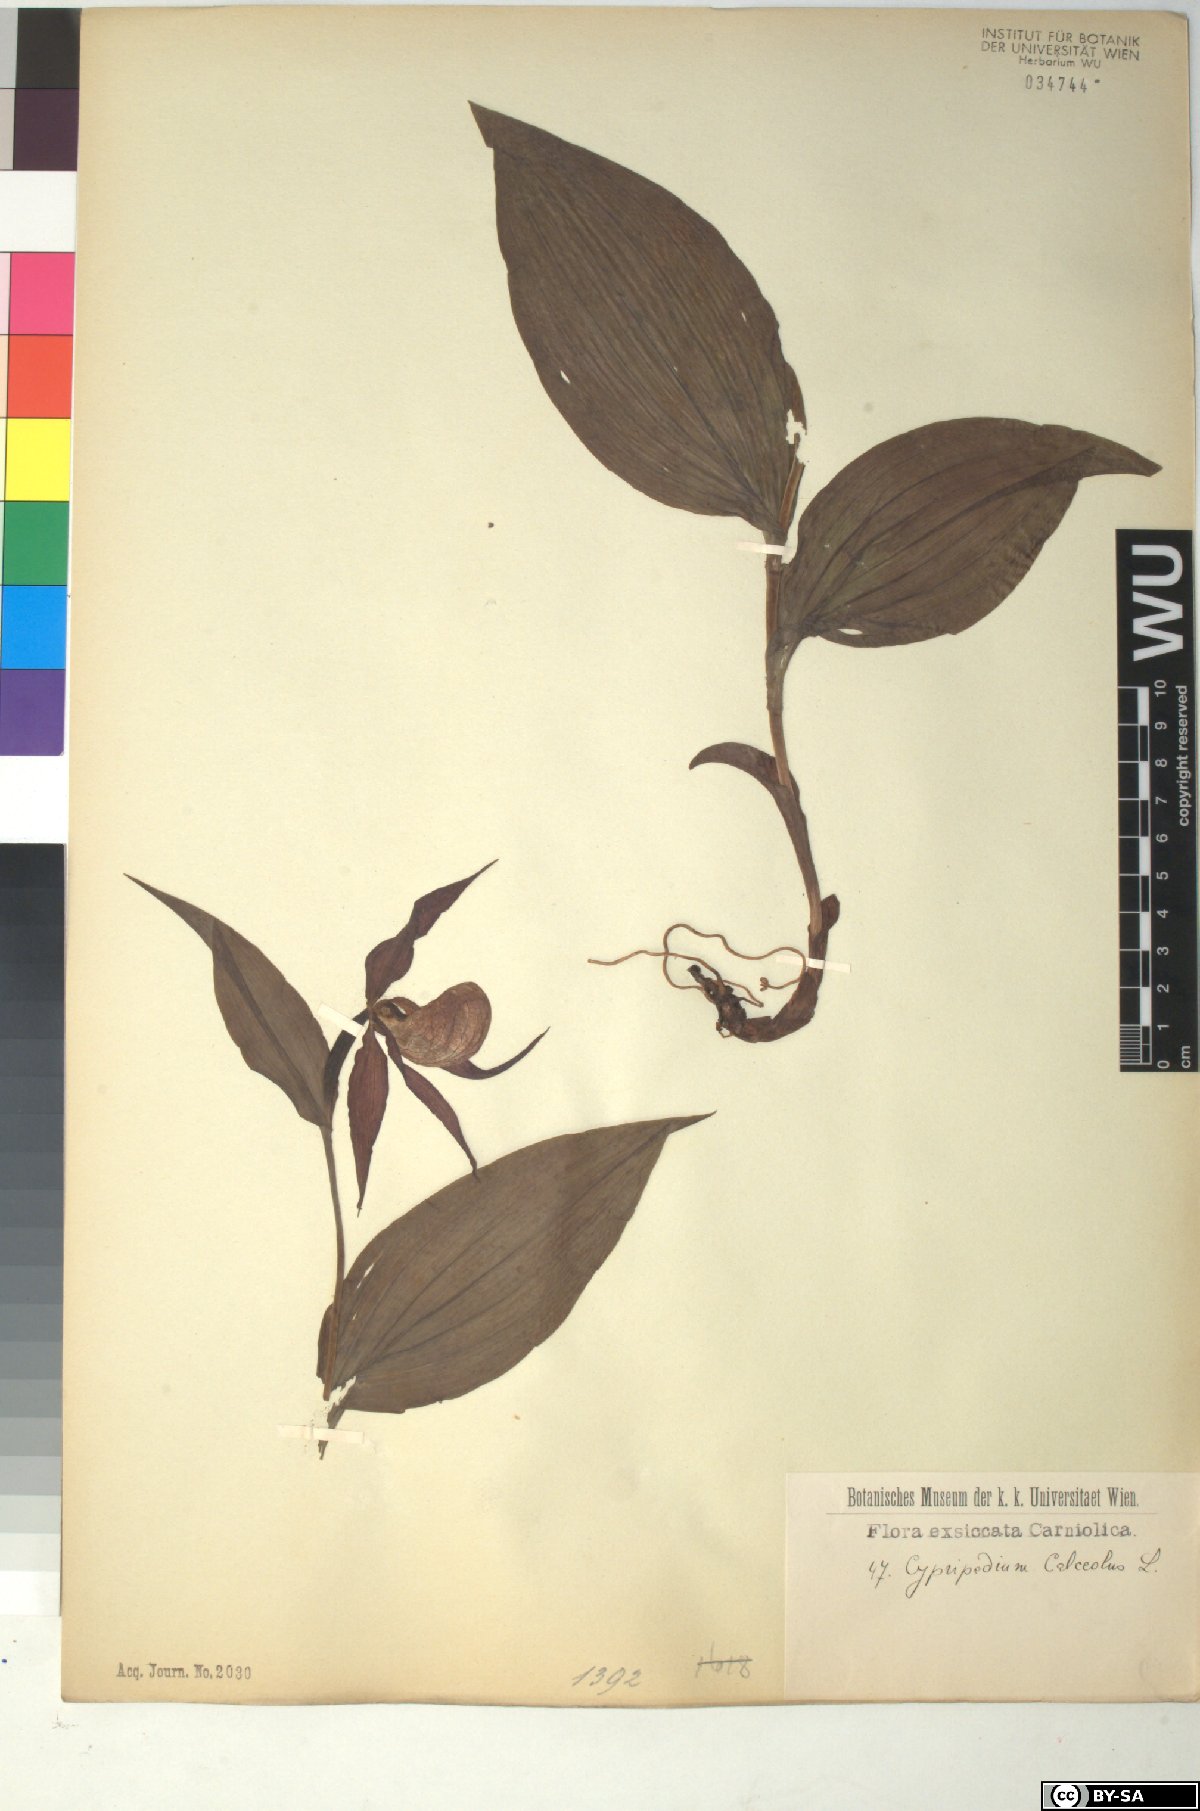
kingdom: Plantae
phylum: Tracheophyta
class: Liliopsida
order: Asparagales
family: Orchidaceae
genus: Cypripedium
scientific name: Cypripedium calceolus
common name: Lady's-slipper
